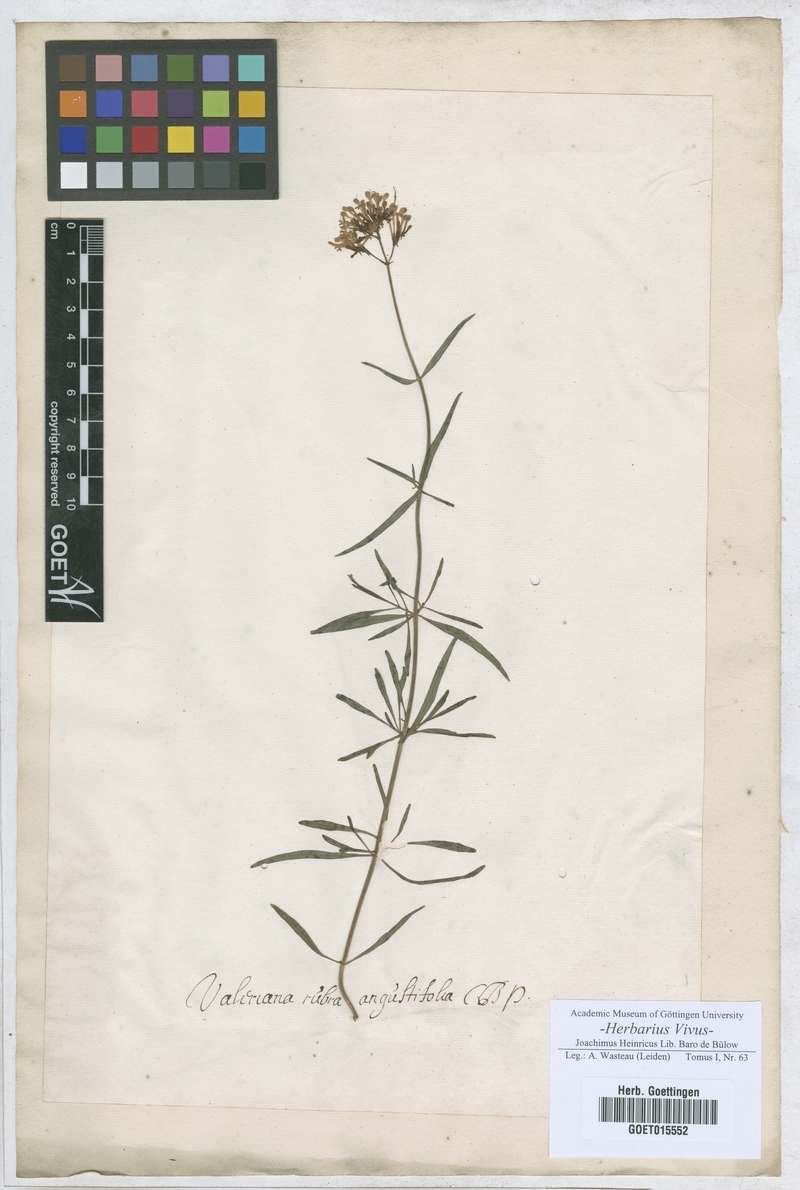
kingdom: Plantae
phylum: Tracheophyta
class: Magnoliopsida
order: Dipsacales
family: Caprifoliaceae
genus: Centranthus
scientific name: Centranthus ruber
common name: Red valerian
